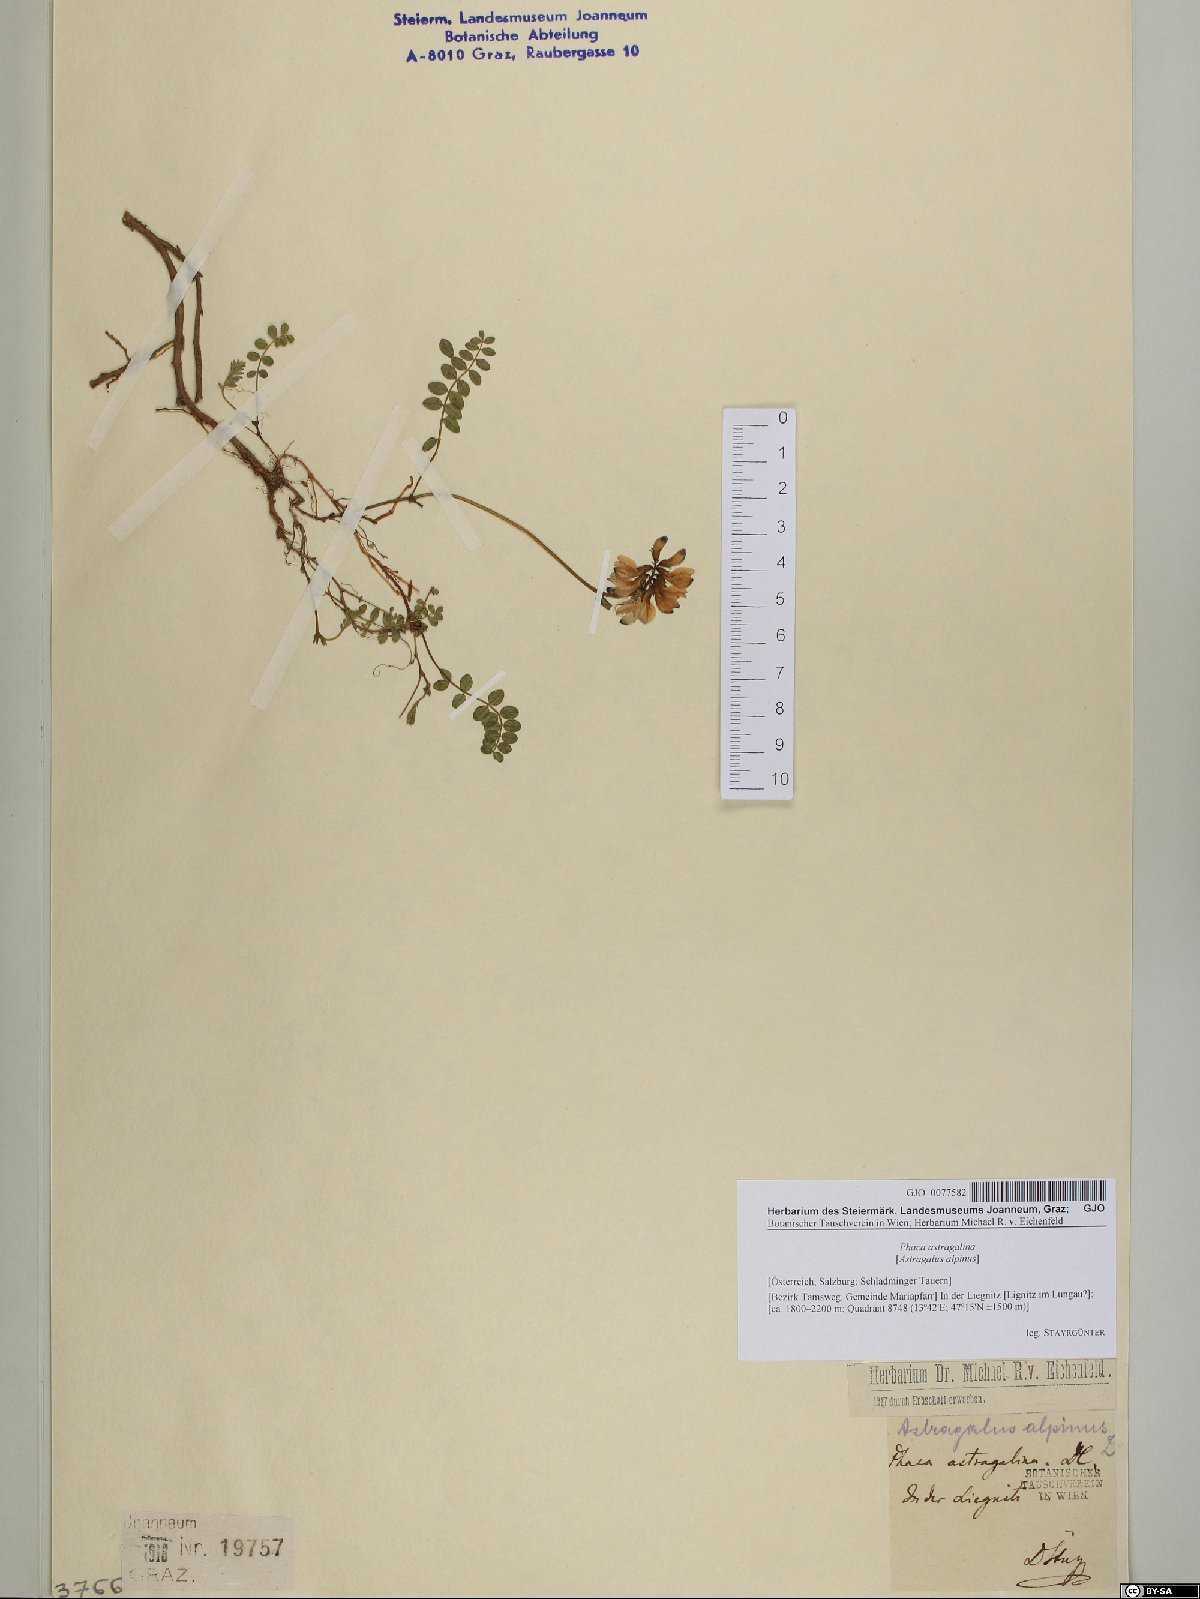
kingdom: Plantae
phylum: Tracheophyta
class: Magnoliopsida
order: Fabales
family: Fabaceae
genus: Astragalus
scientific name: Astragalus alpinus
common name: Alpine milk-vetch
